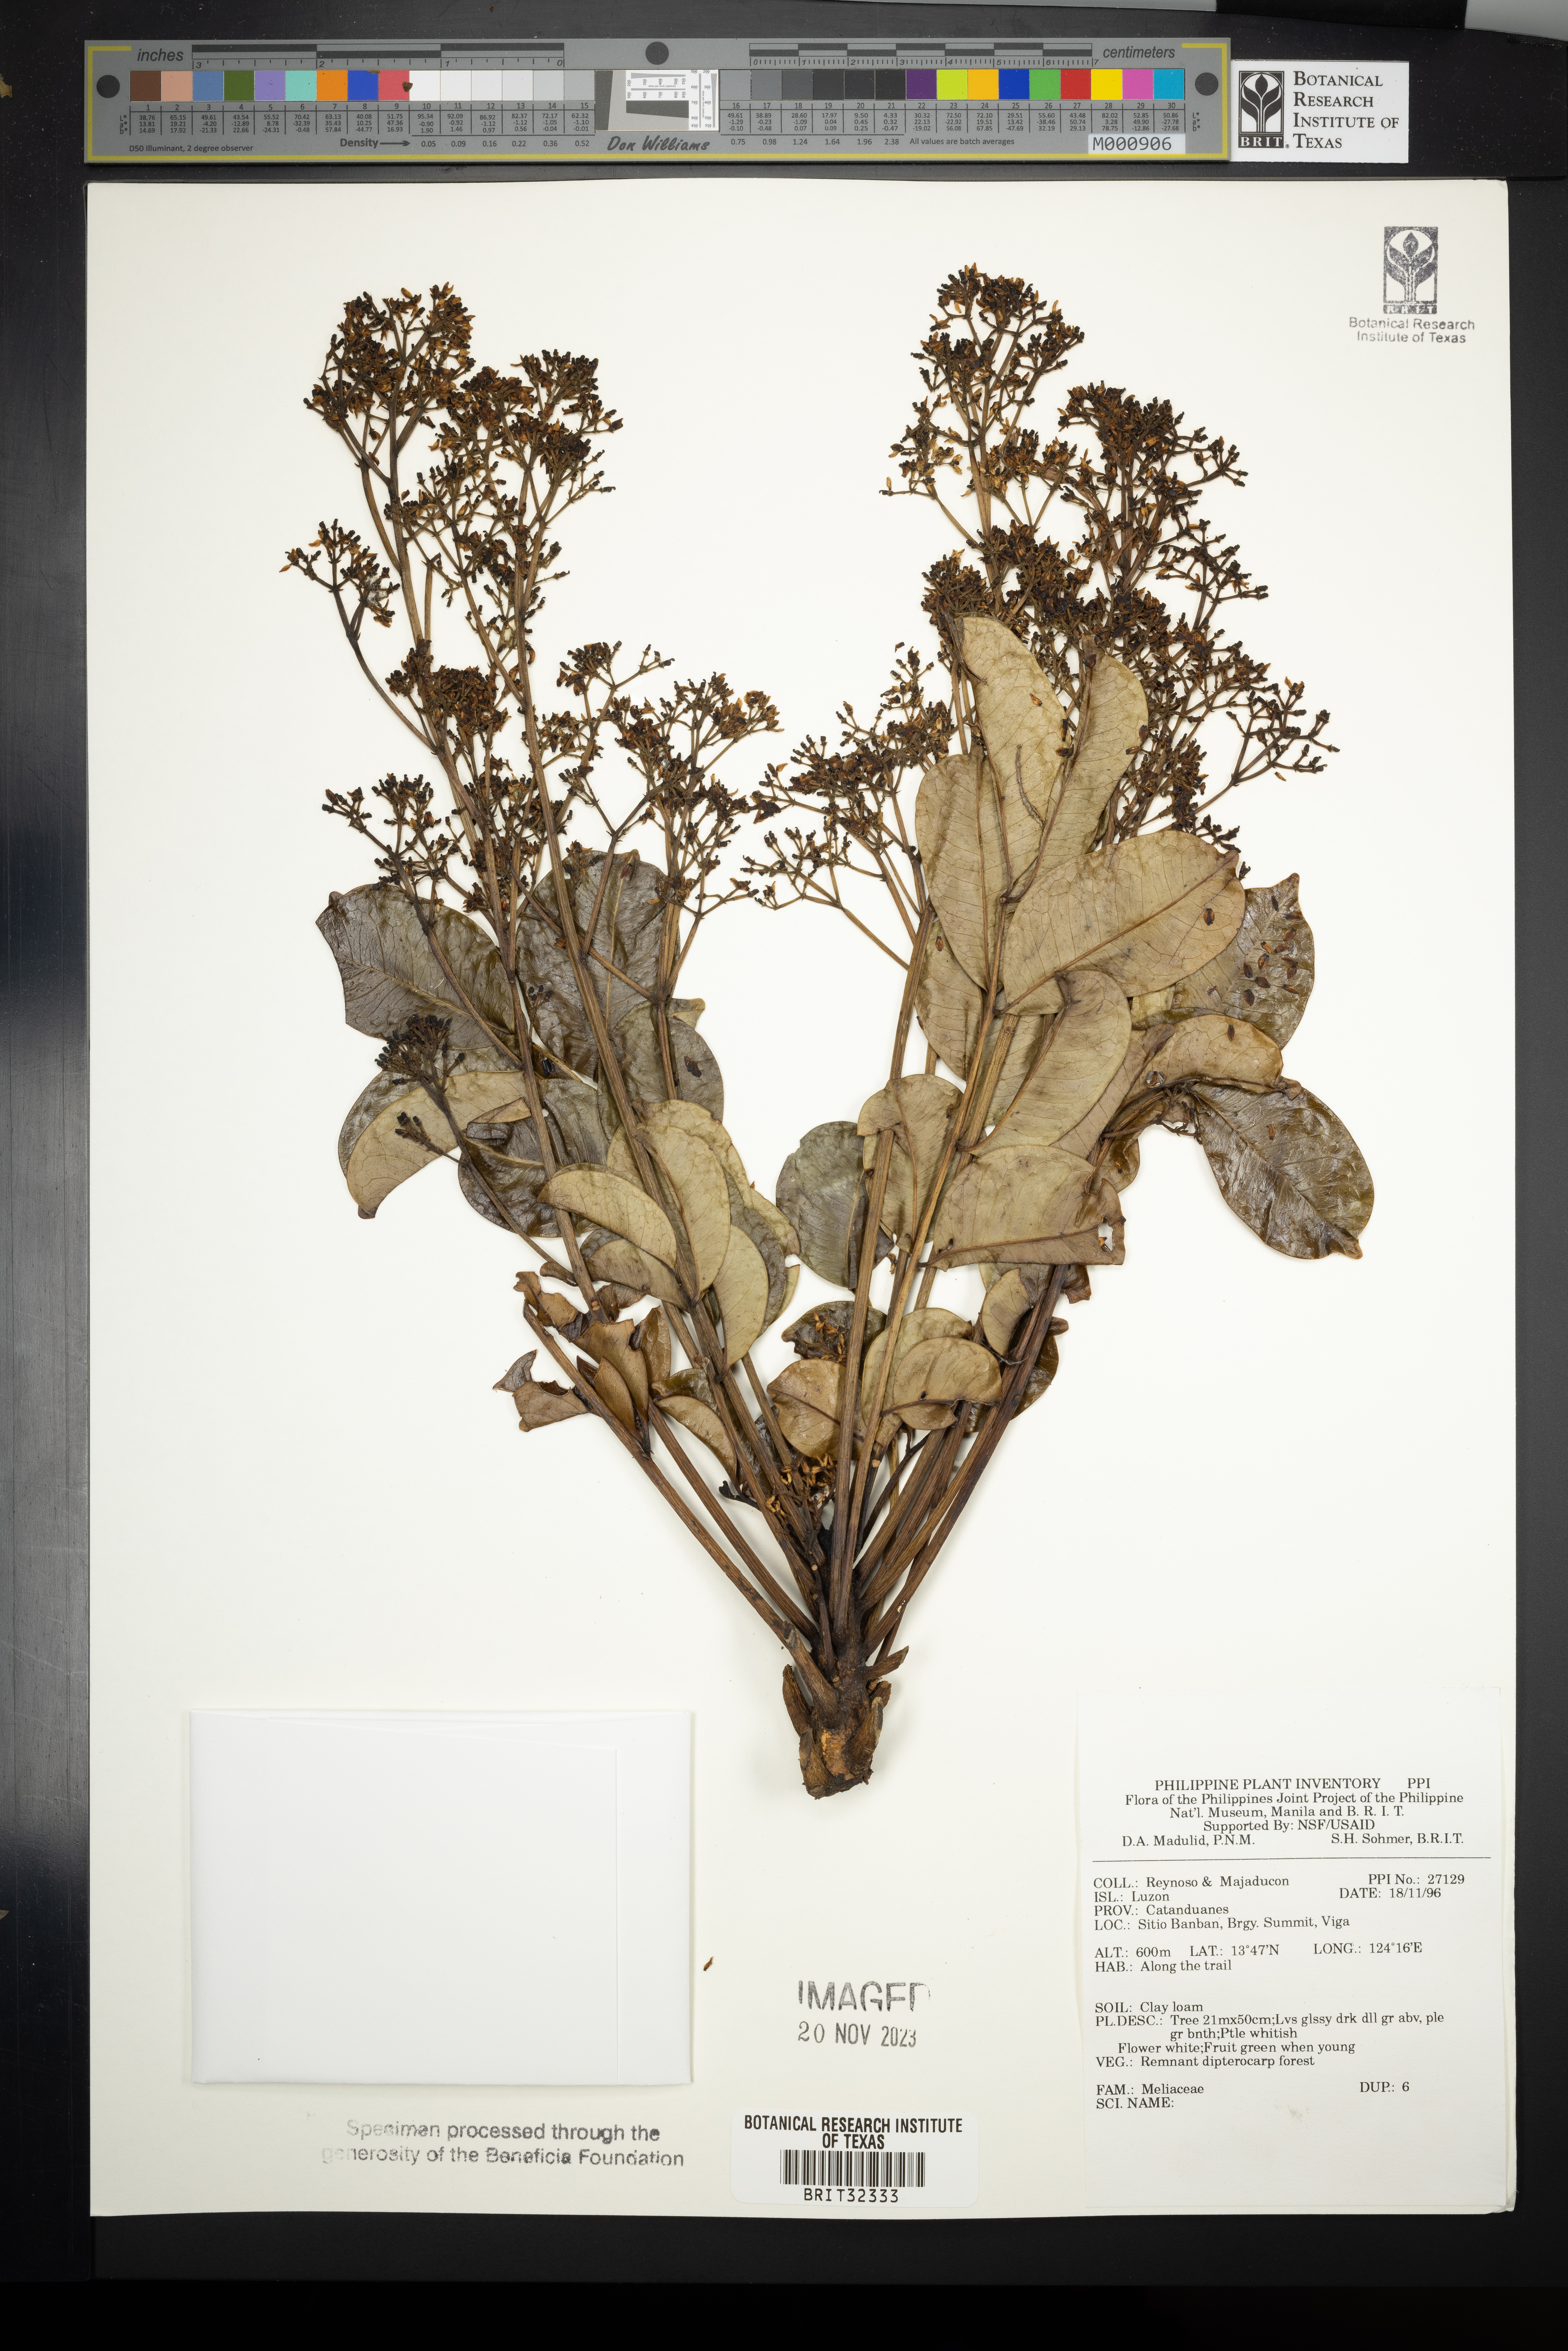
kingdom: Plantae
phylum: Tracheophyta
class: Magnoliopsida
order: Sapindales
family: Meliaceae
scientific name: Meliaceae
